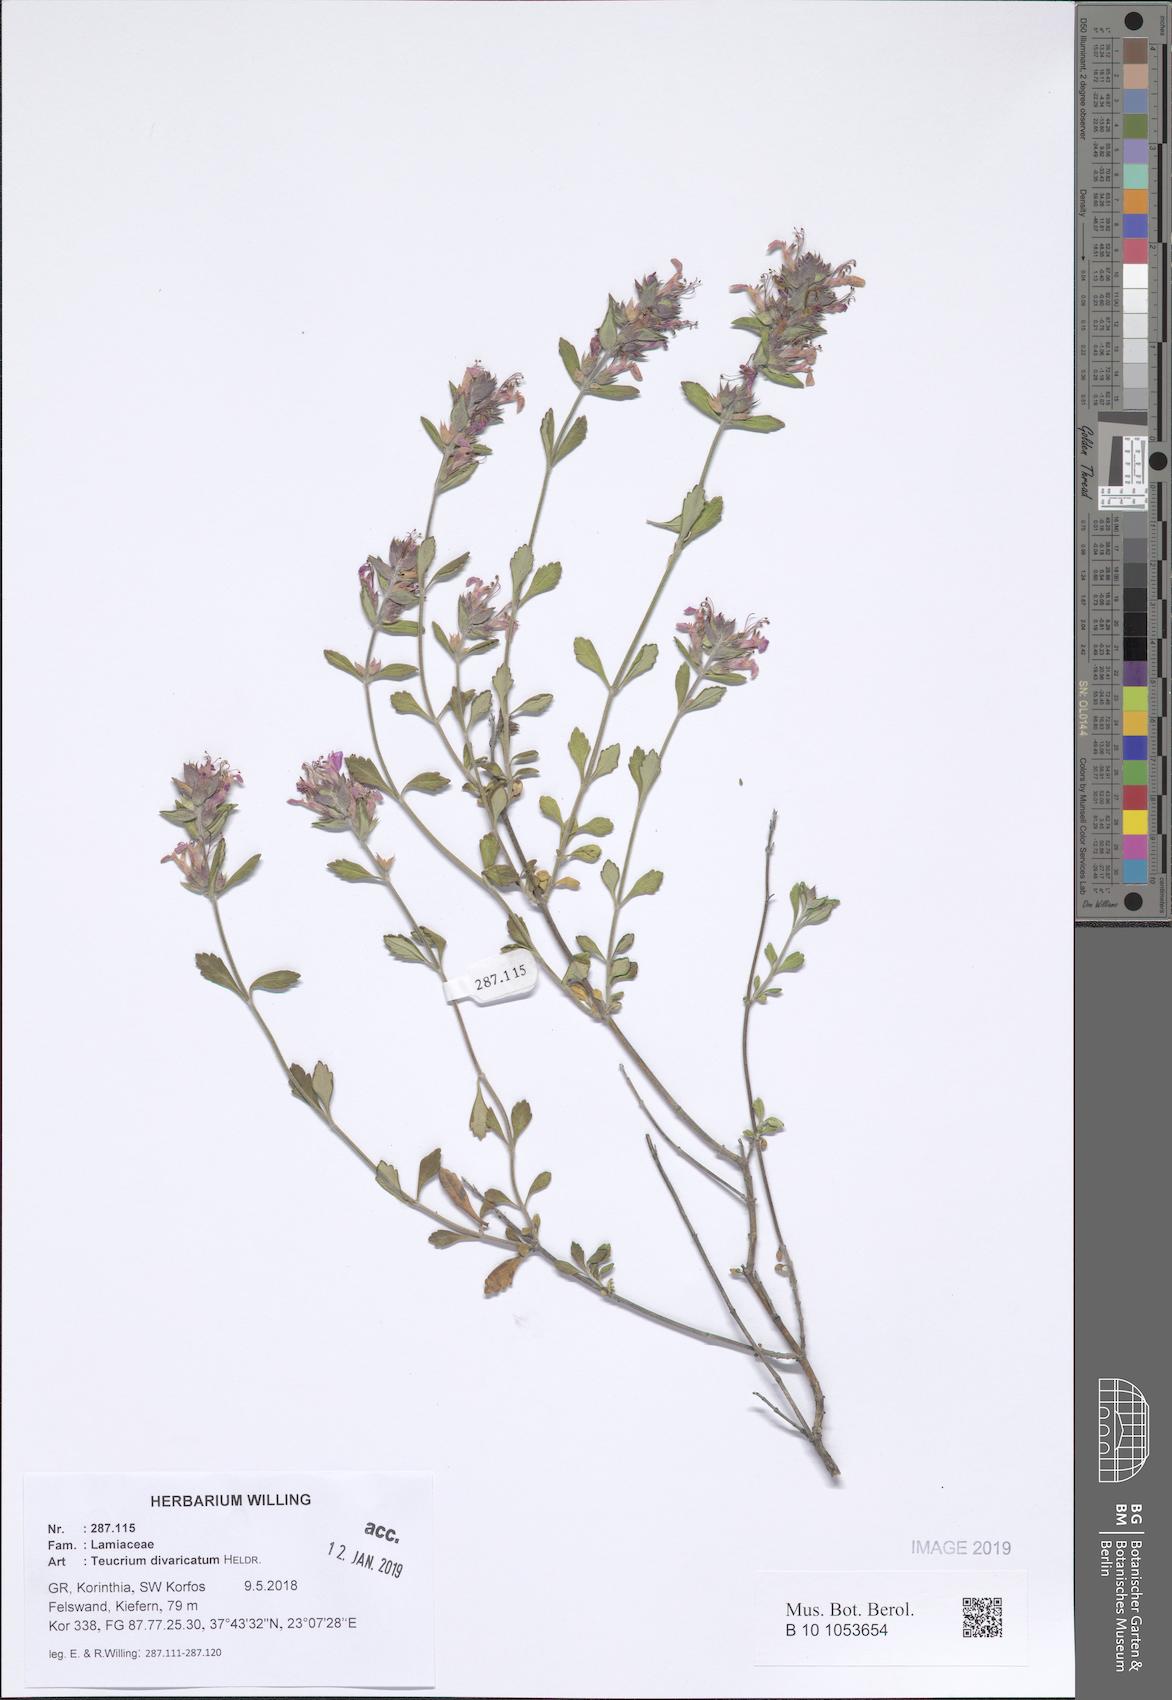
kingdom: Plantae
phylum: Tracheophyta
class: Magnoliopsida
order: Lamiales
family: Lamiaceae
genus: Teucrium
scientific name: Teucrium divaricatum
